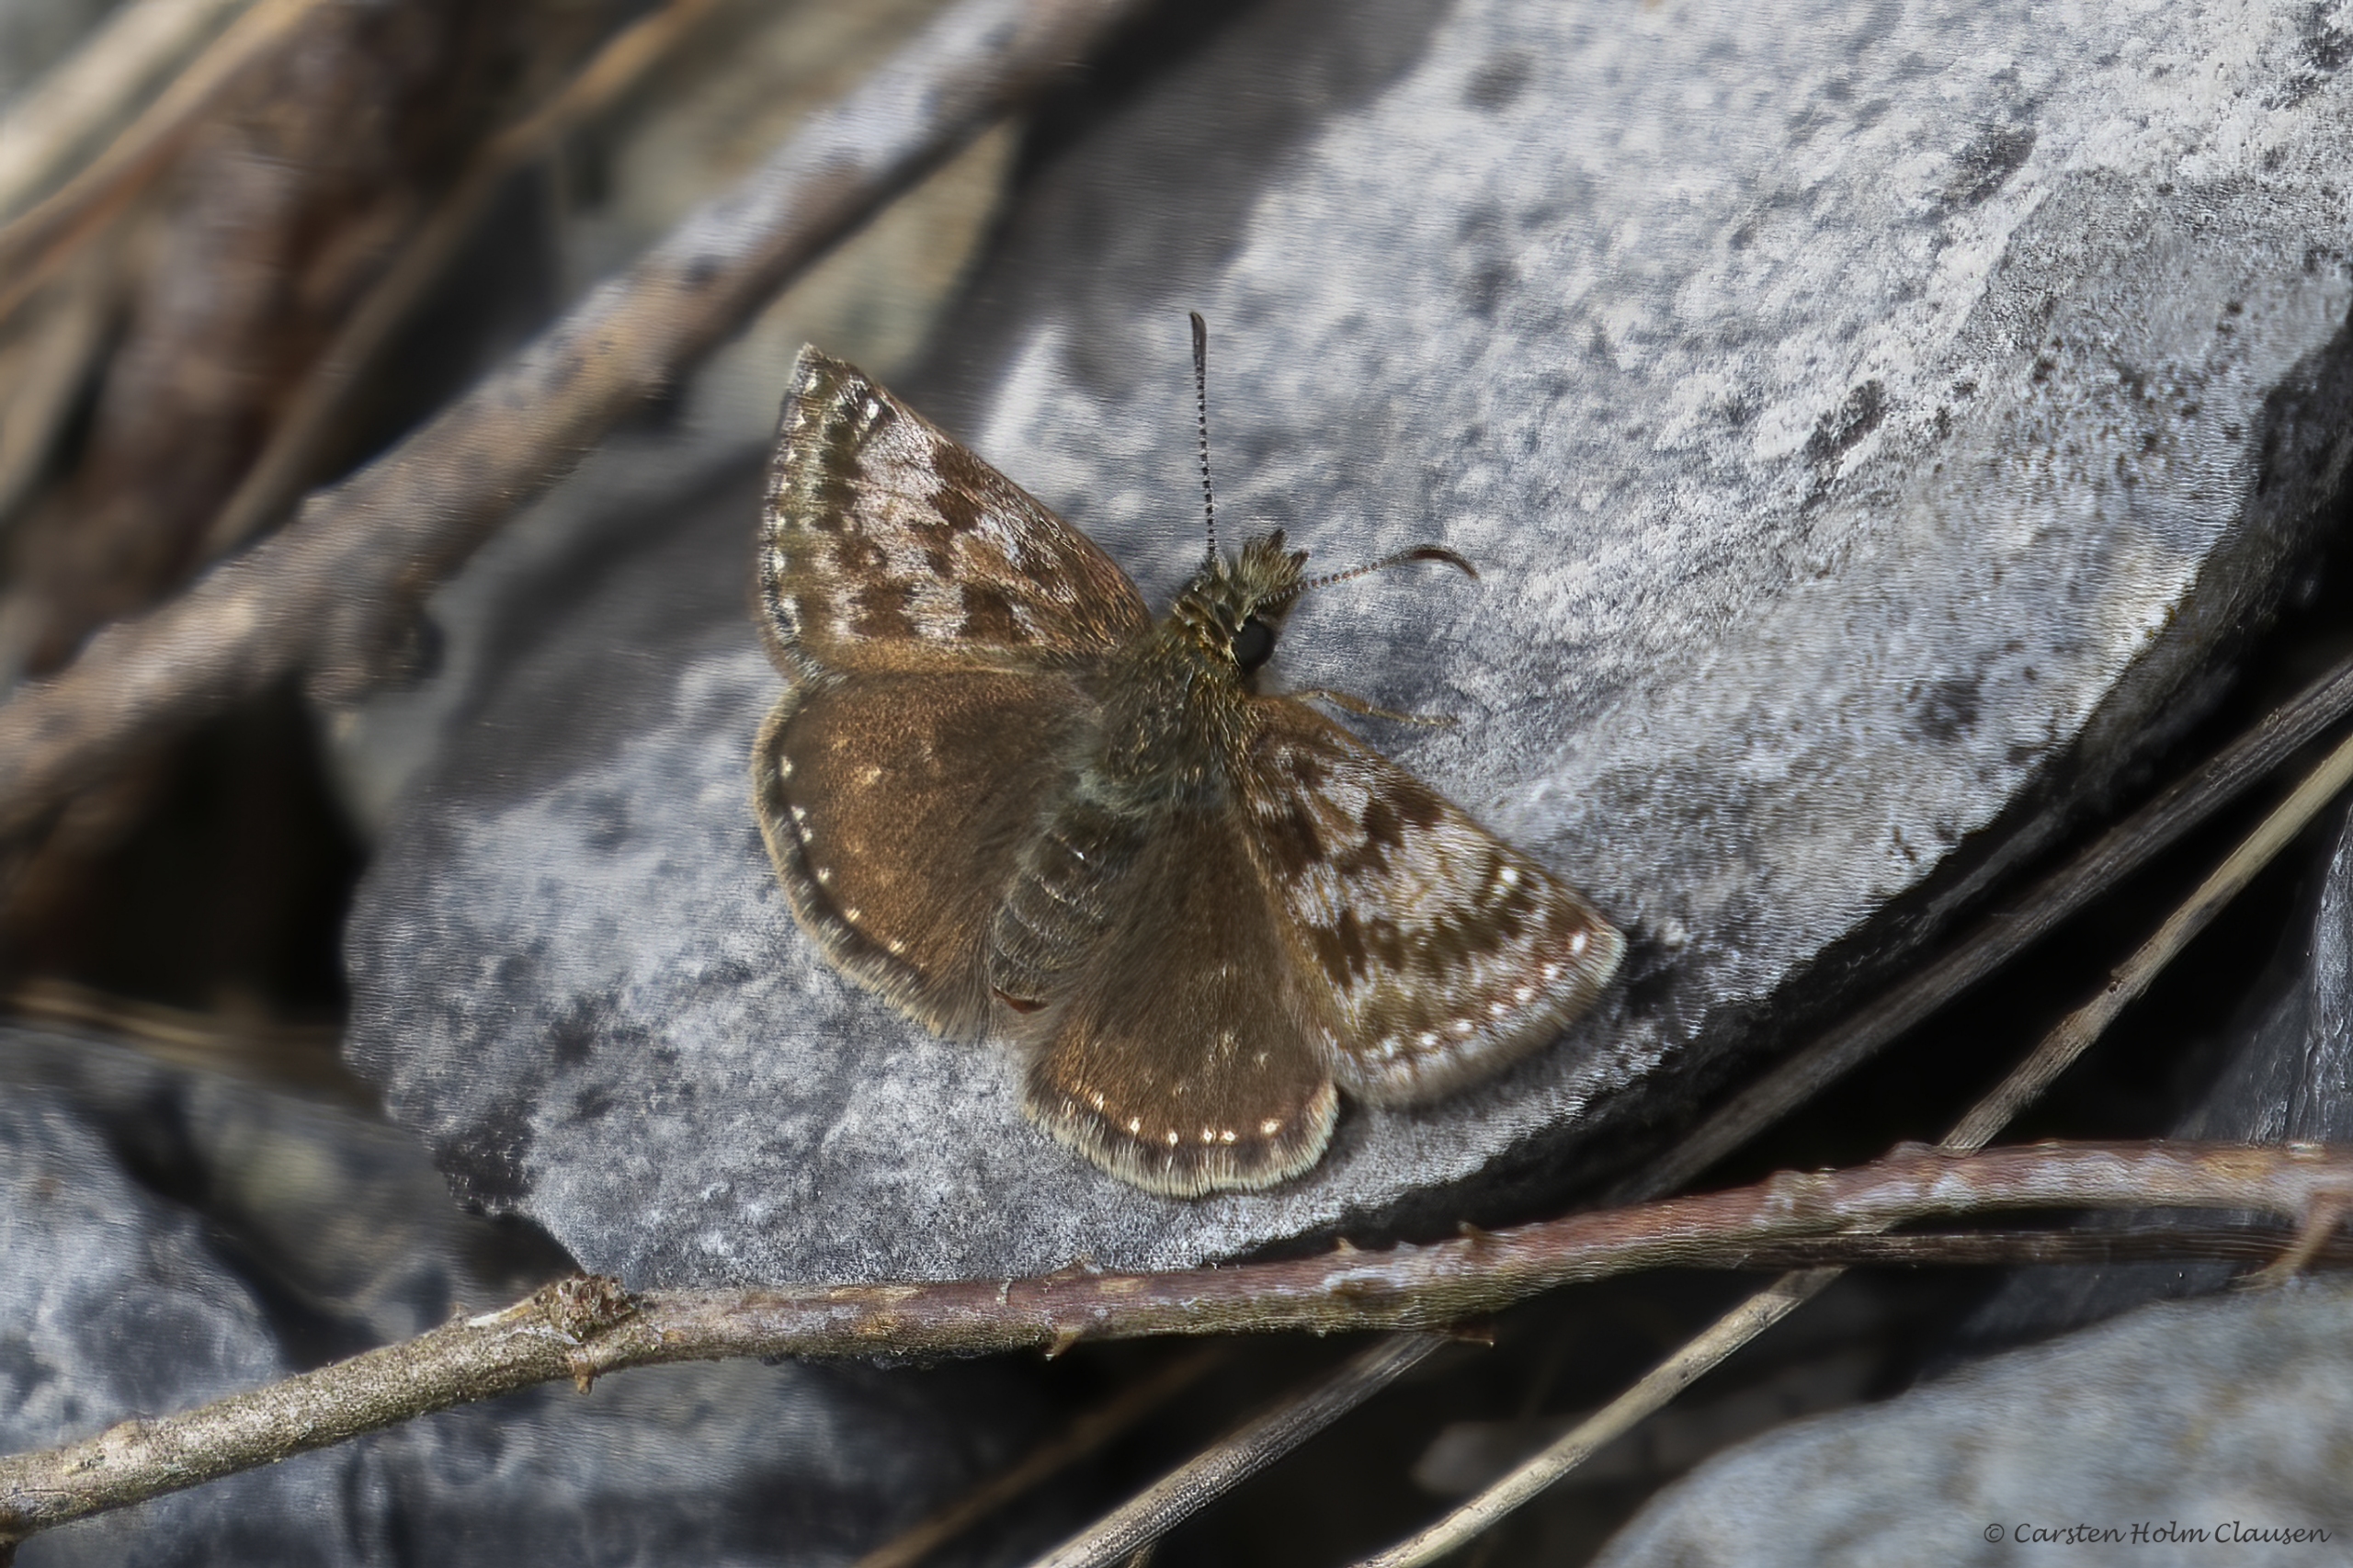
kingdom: Animalia
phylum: Arthropoda
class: Insecta
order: Lepidoptera
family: Hesperiidae
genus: Erynnis
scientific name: Erynnis tages
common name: Gråbåndet bredpande
